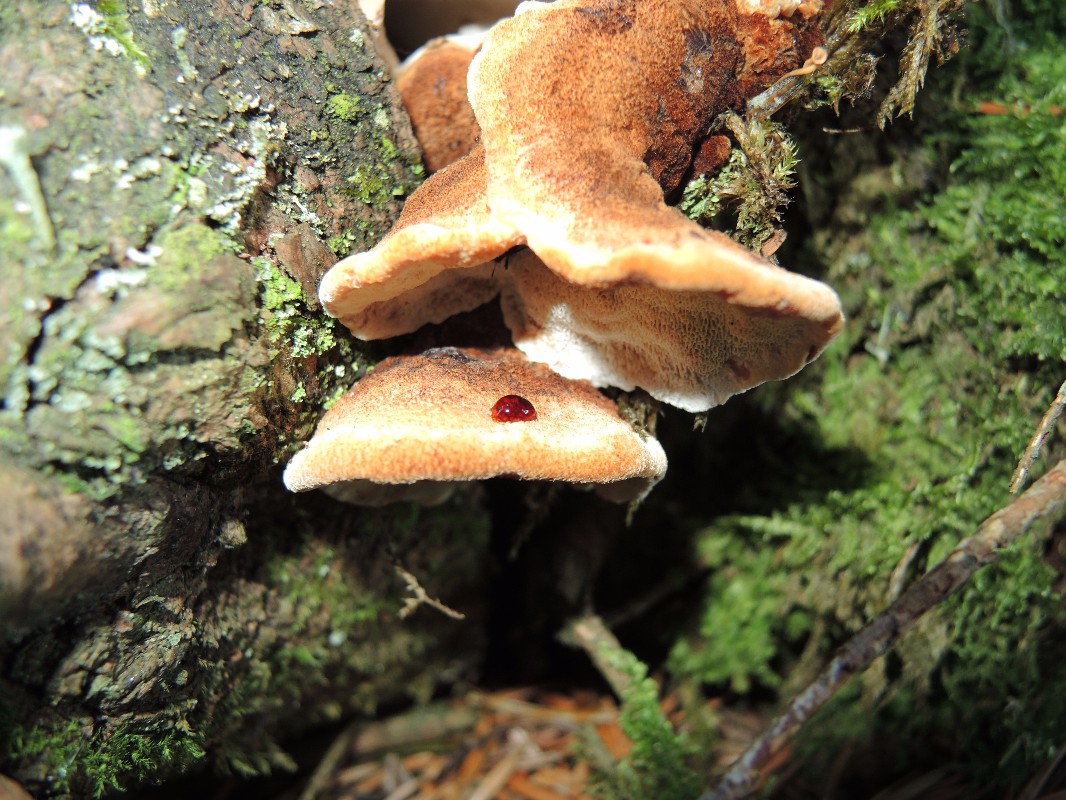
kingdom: Fungi
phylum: Basidiomycota
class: Agaricomycetes
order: Polyporales
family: Ischnodermataceae
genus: Ischnoderma
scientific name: Ischnoderma benzoinum
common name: gran-tjæreporesvamp
